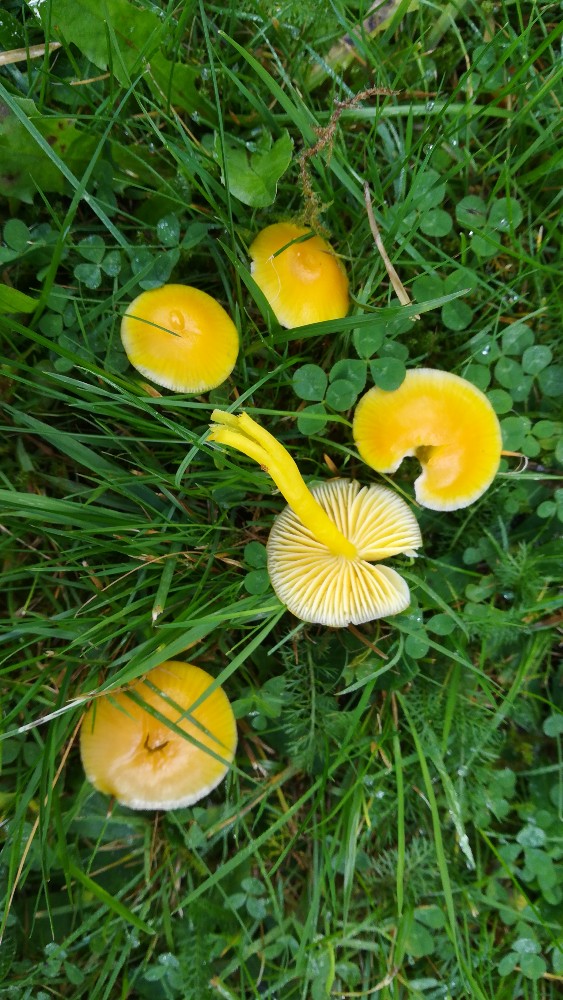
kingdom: Fungi
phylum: Basidiomycota
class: Agaricomycetes
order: Agaricales
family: Hygrophoraceae
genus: Hygrocybe
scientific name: Hygrocybe ceracea
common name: voksgul vokshat
